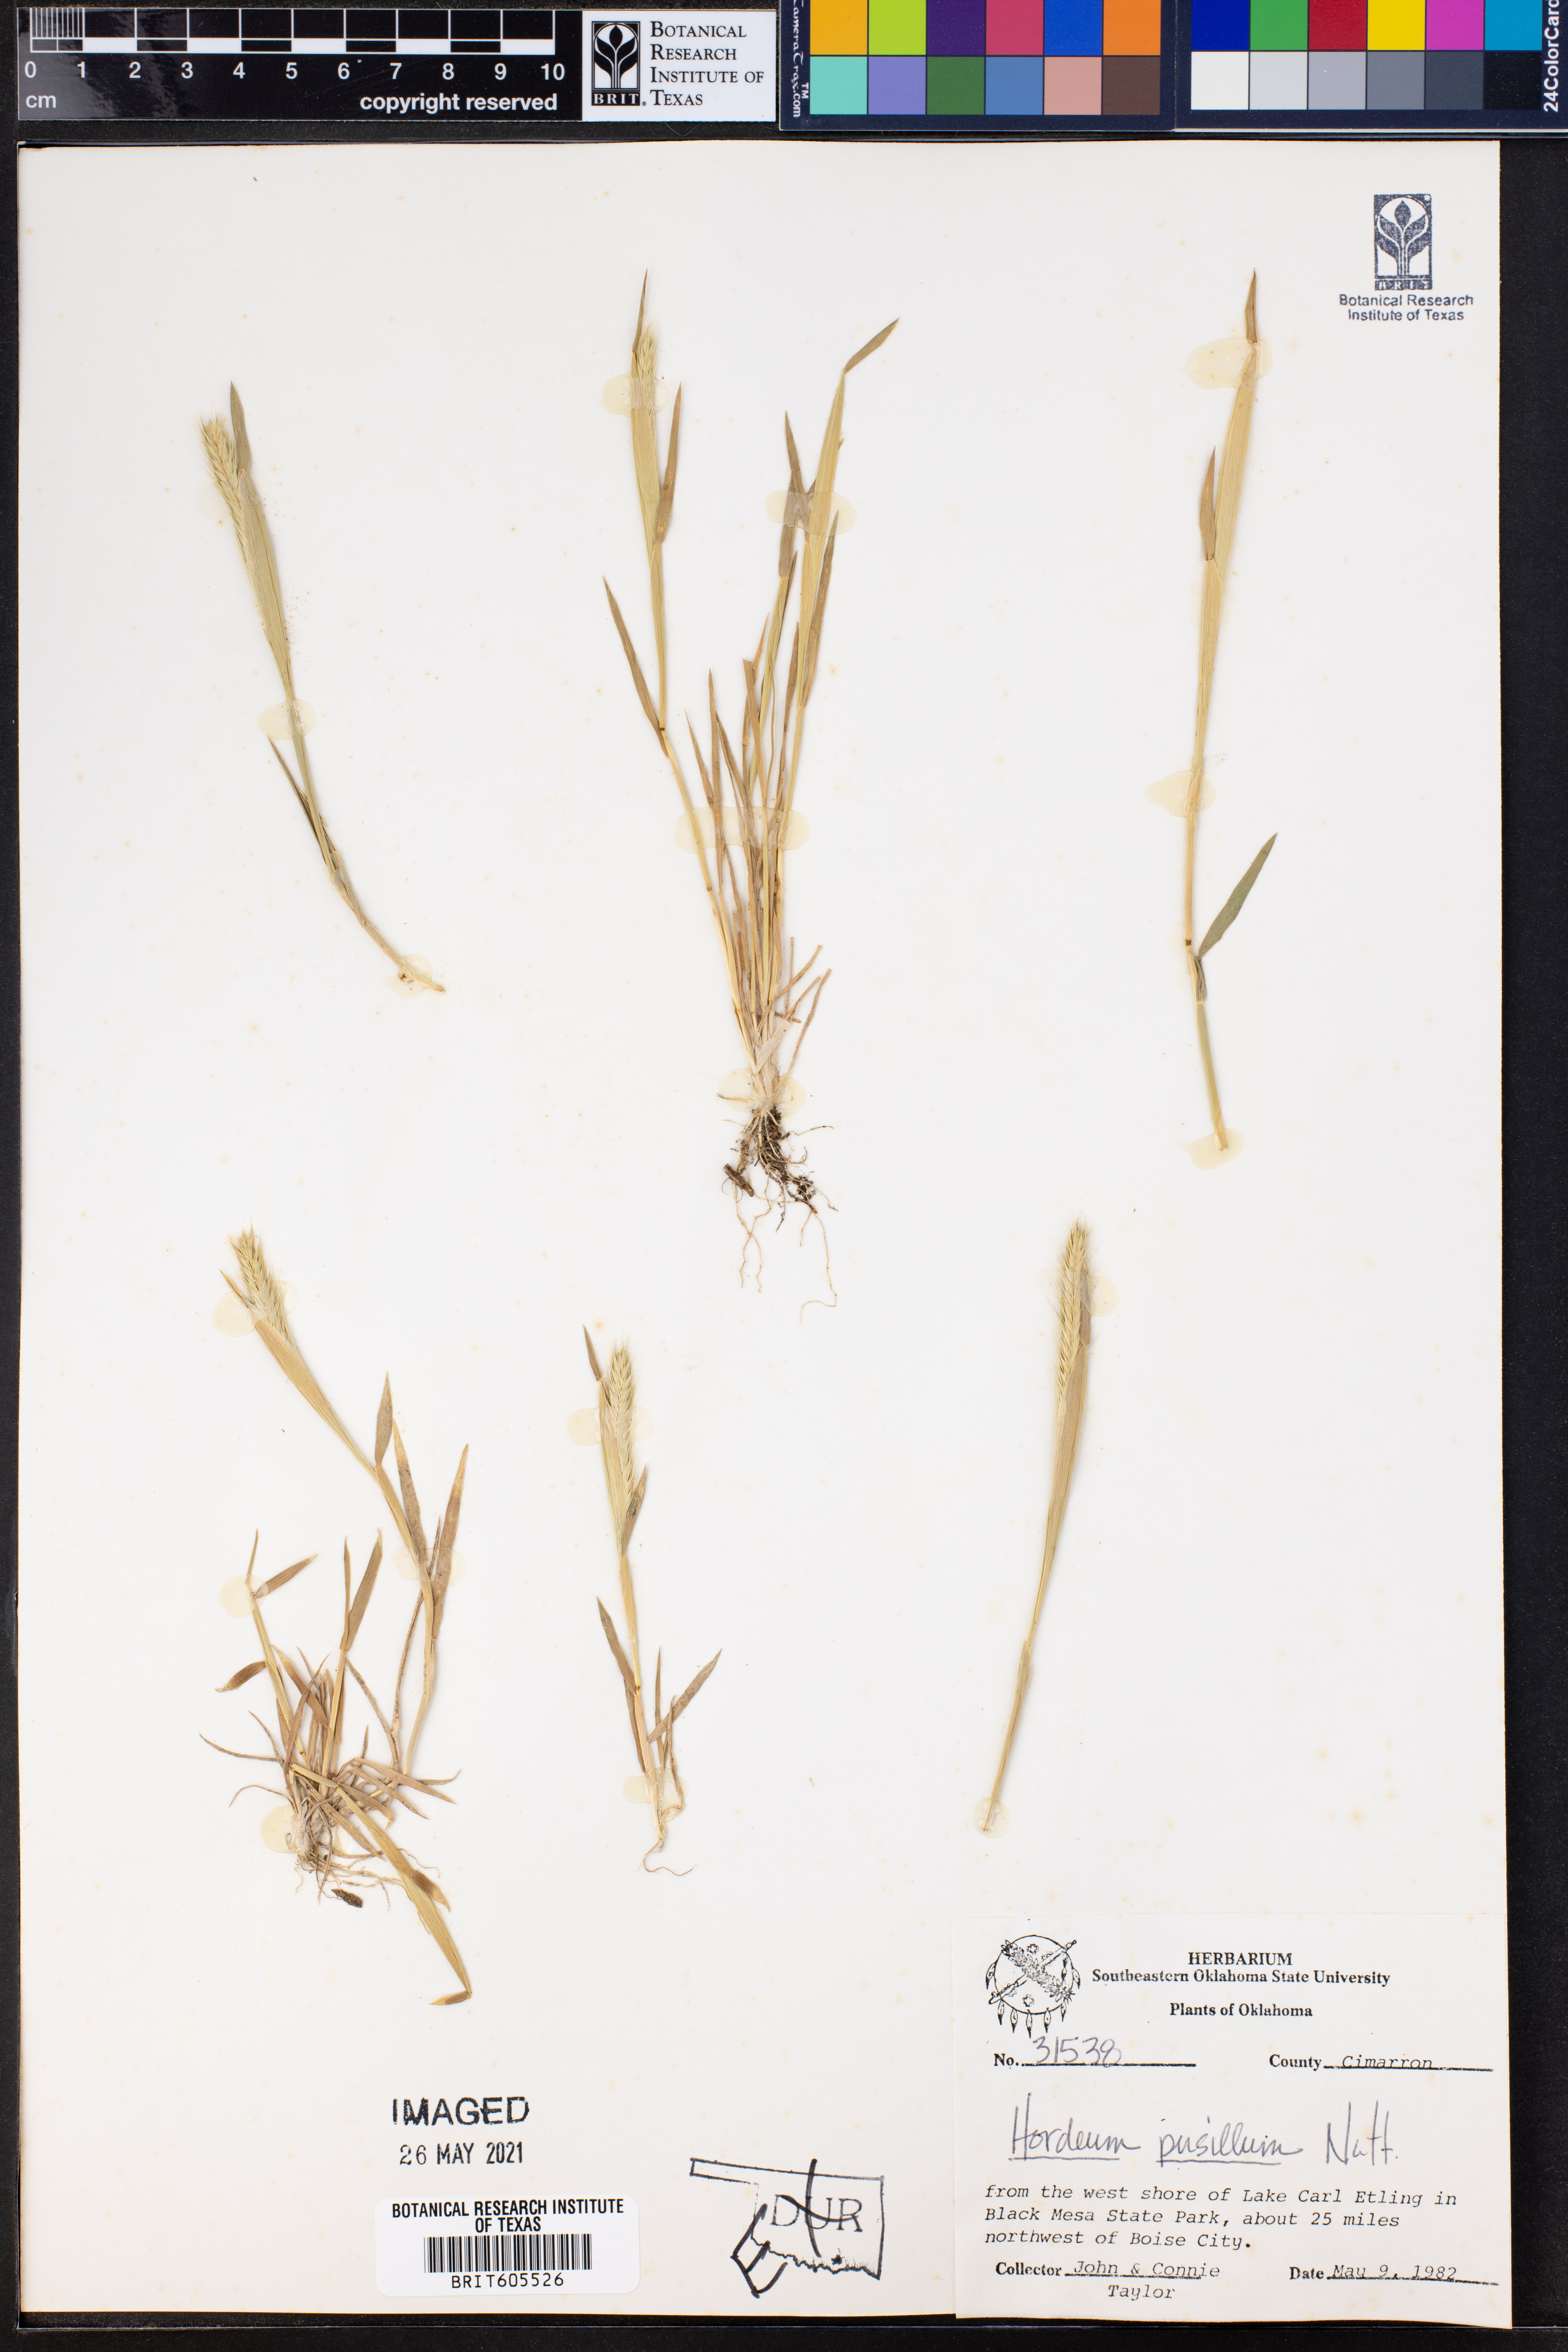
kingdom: Plantae
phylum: Tracheophyta
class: Liliopsida
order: Poales
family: Poaceae
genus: Hordeum
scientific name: Hordeum pusillum
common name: Little barley
